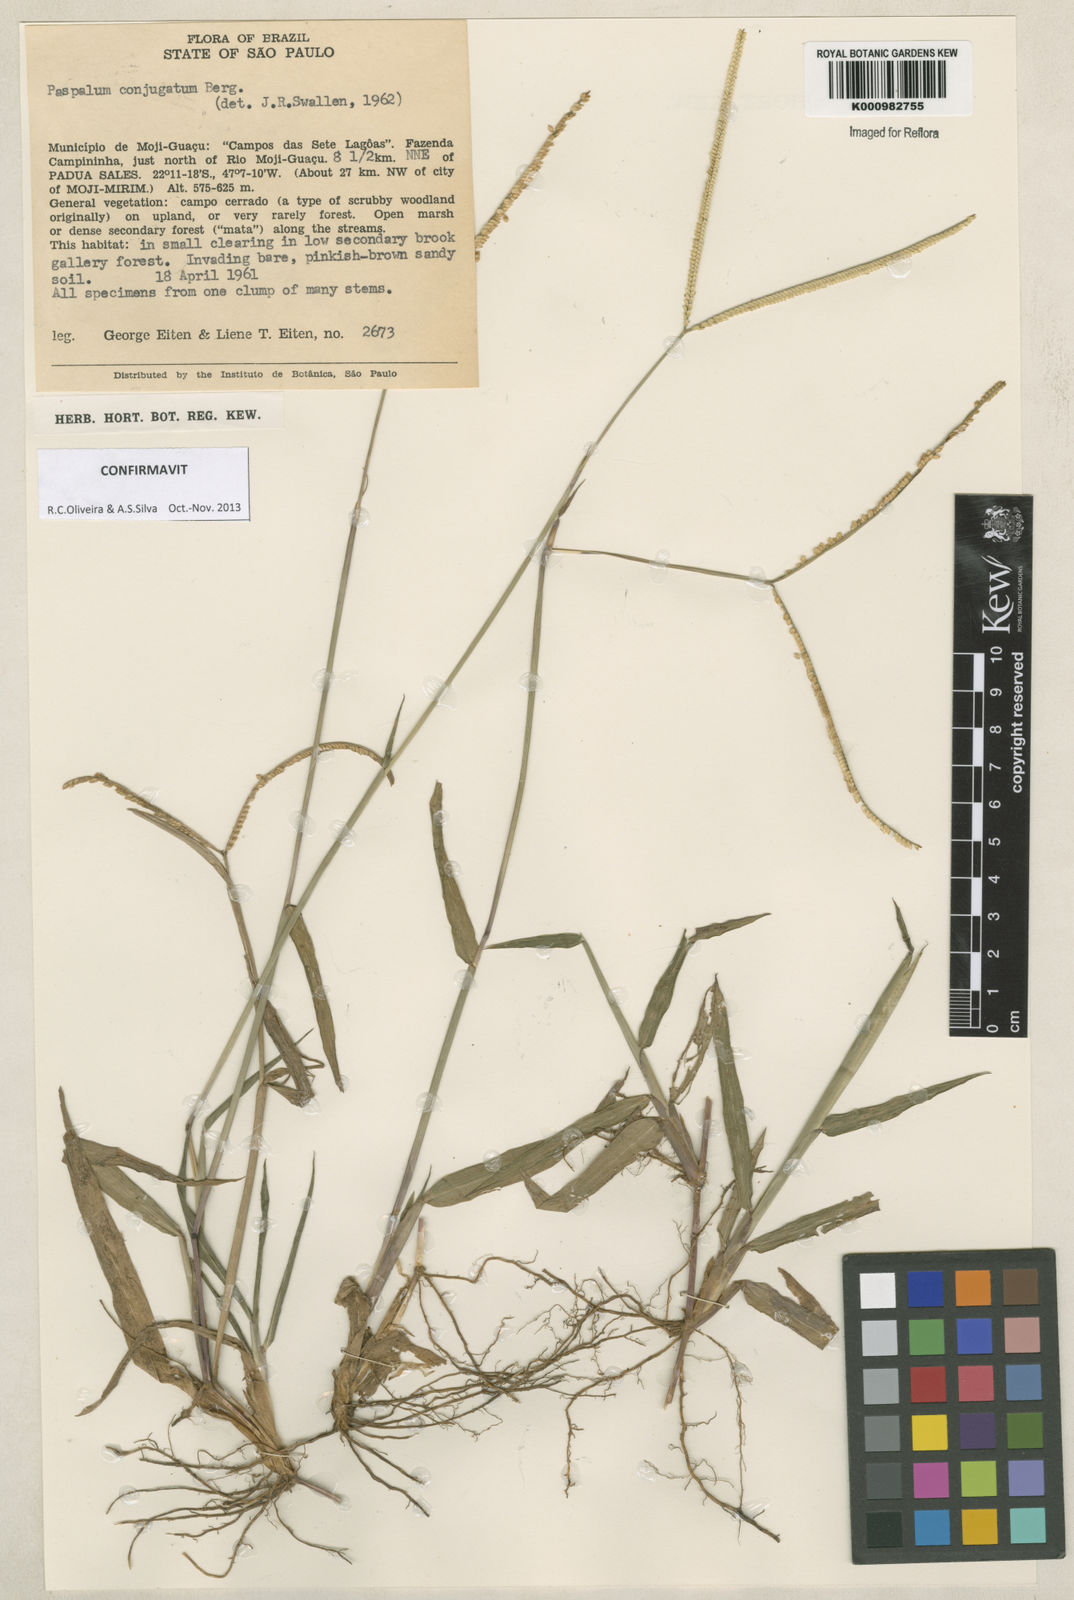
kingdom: Plantae
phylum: Tracheophyta
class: Liliopsida
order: Poales
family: Poaceae
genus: Paspalum
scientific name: Paspalum conjugatum
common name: Hilograss
